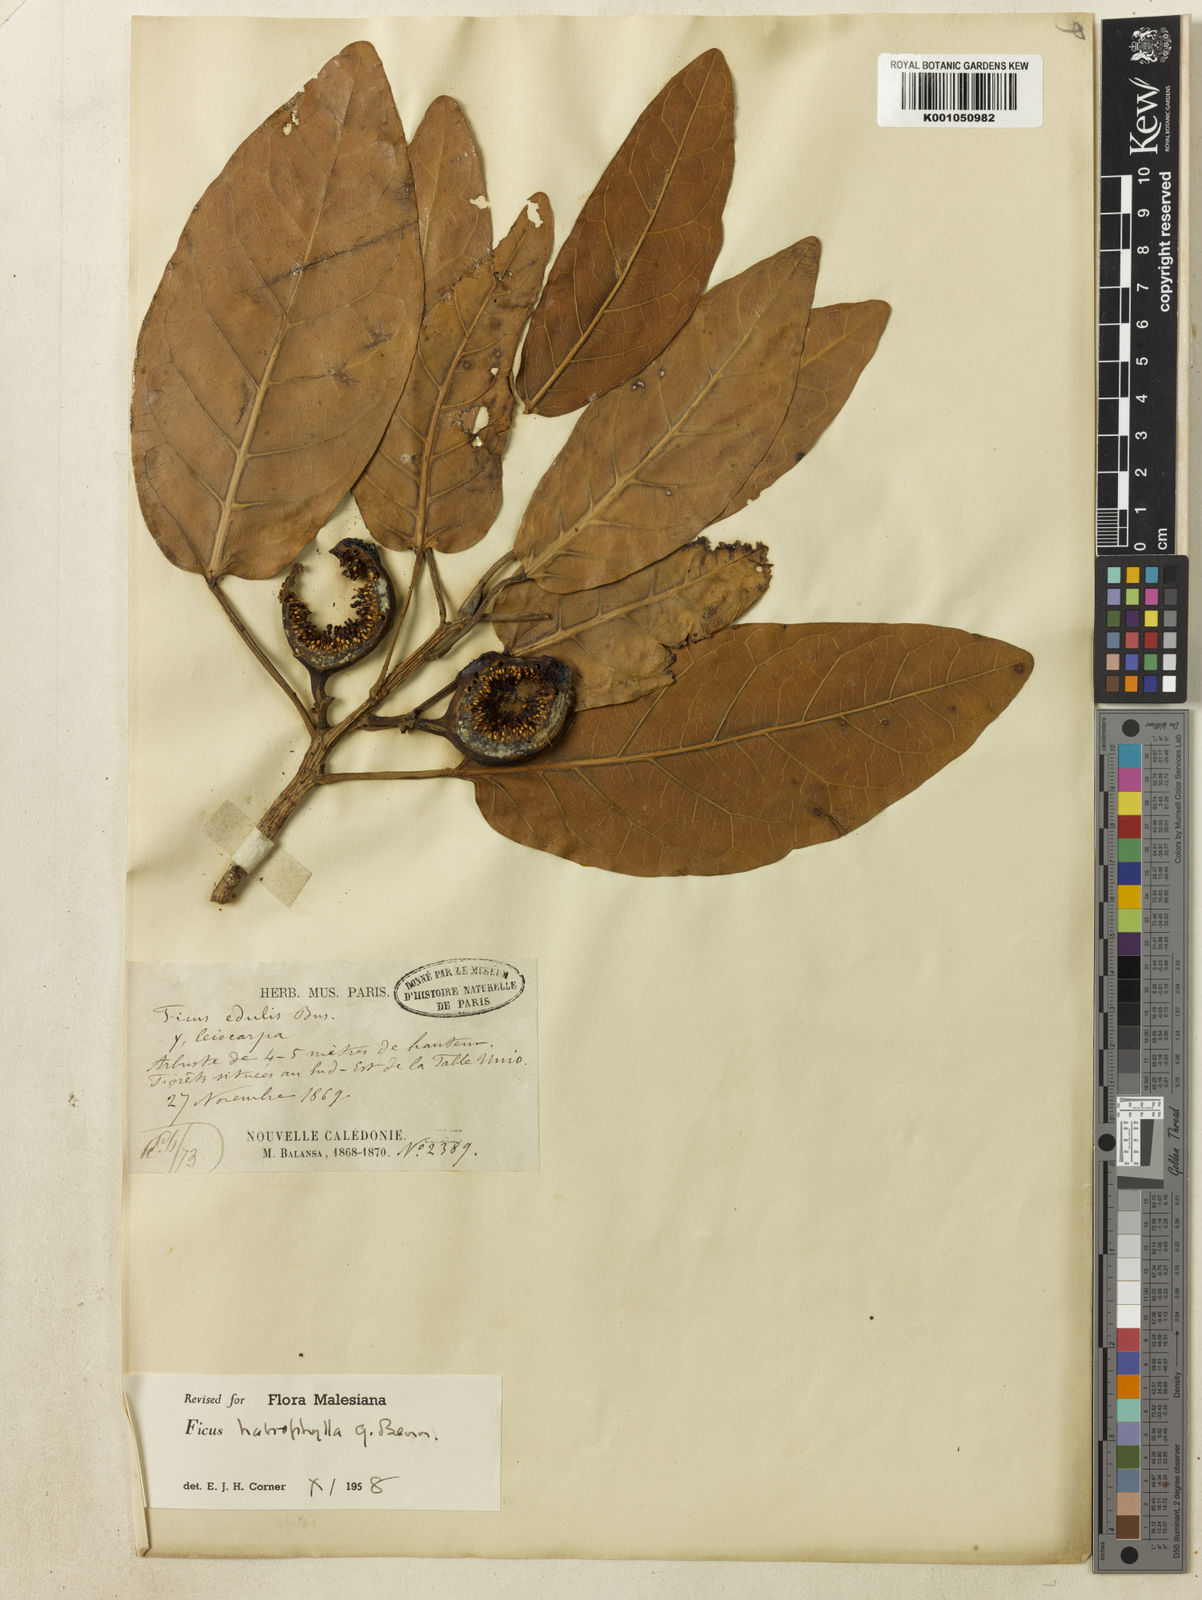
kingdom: Plantae
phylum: Tracheophyta
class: Magnoliopsida
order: Rosales
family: Moraceae
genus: Ficus
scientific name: Ficus leiocarpa
